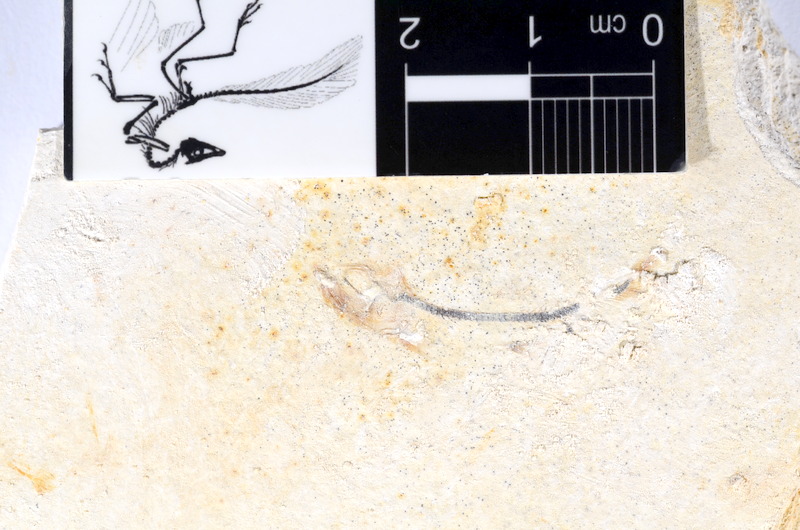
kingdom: Animalia
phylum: Chordata
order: Salmoniformes
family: Orthogonikleithridae
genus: Orthogonikleithrus
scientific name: Orthogonikleithrus hoelli
